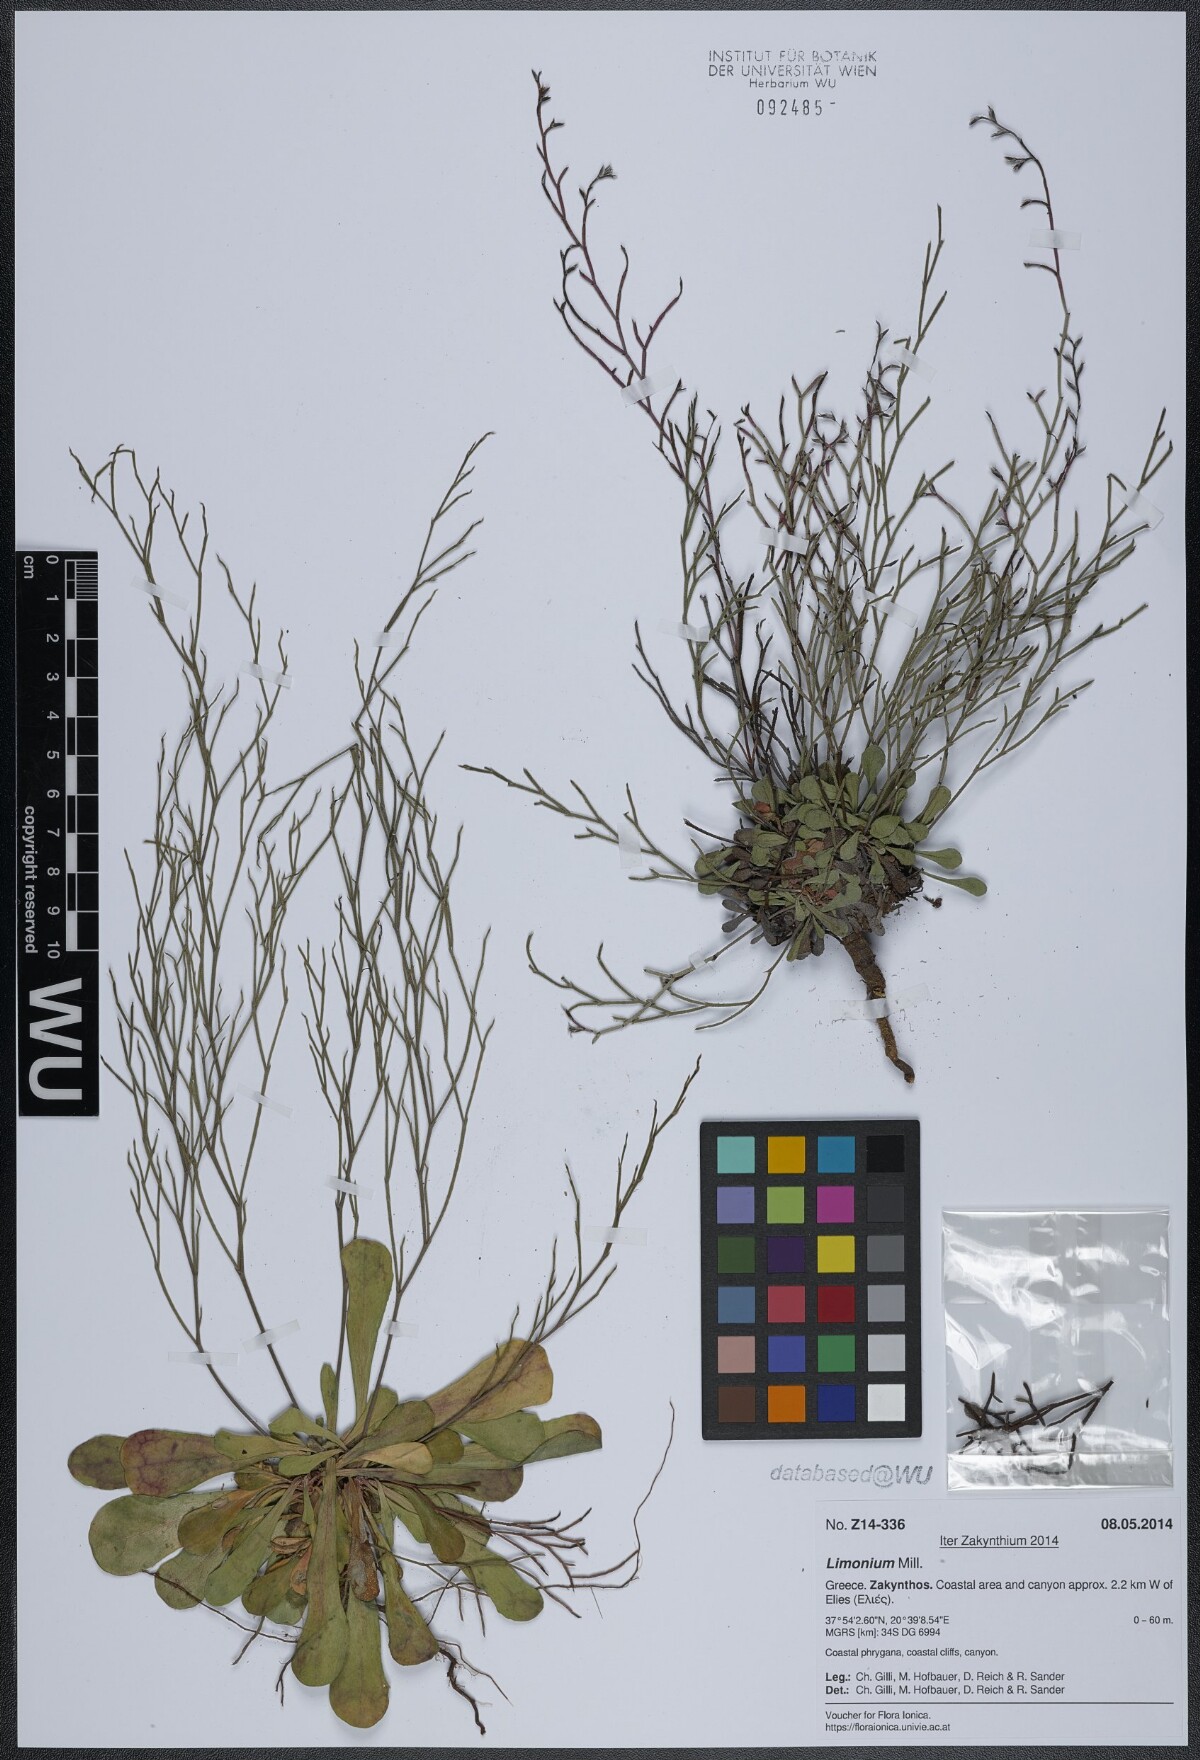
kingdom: Plantae
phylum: Tracheophyta
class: Magnoliopsida
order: Caryophyllales
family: Plumbaginaceae
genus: Limonium
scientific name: Limonium
